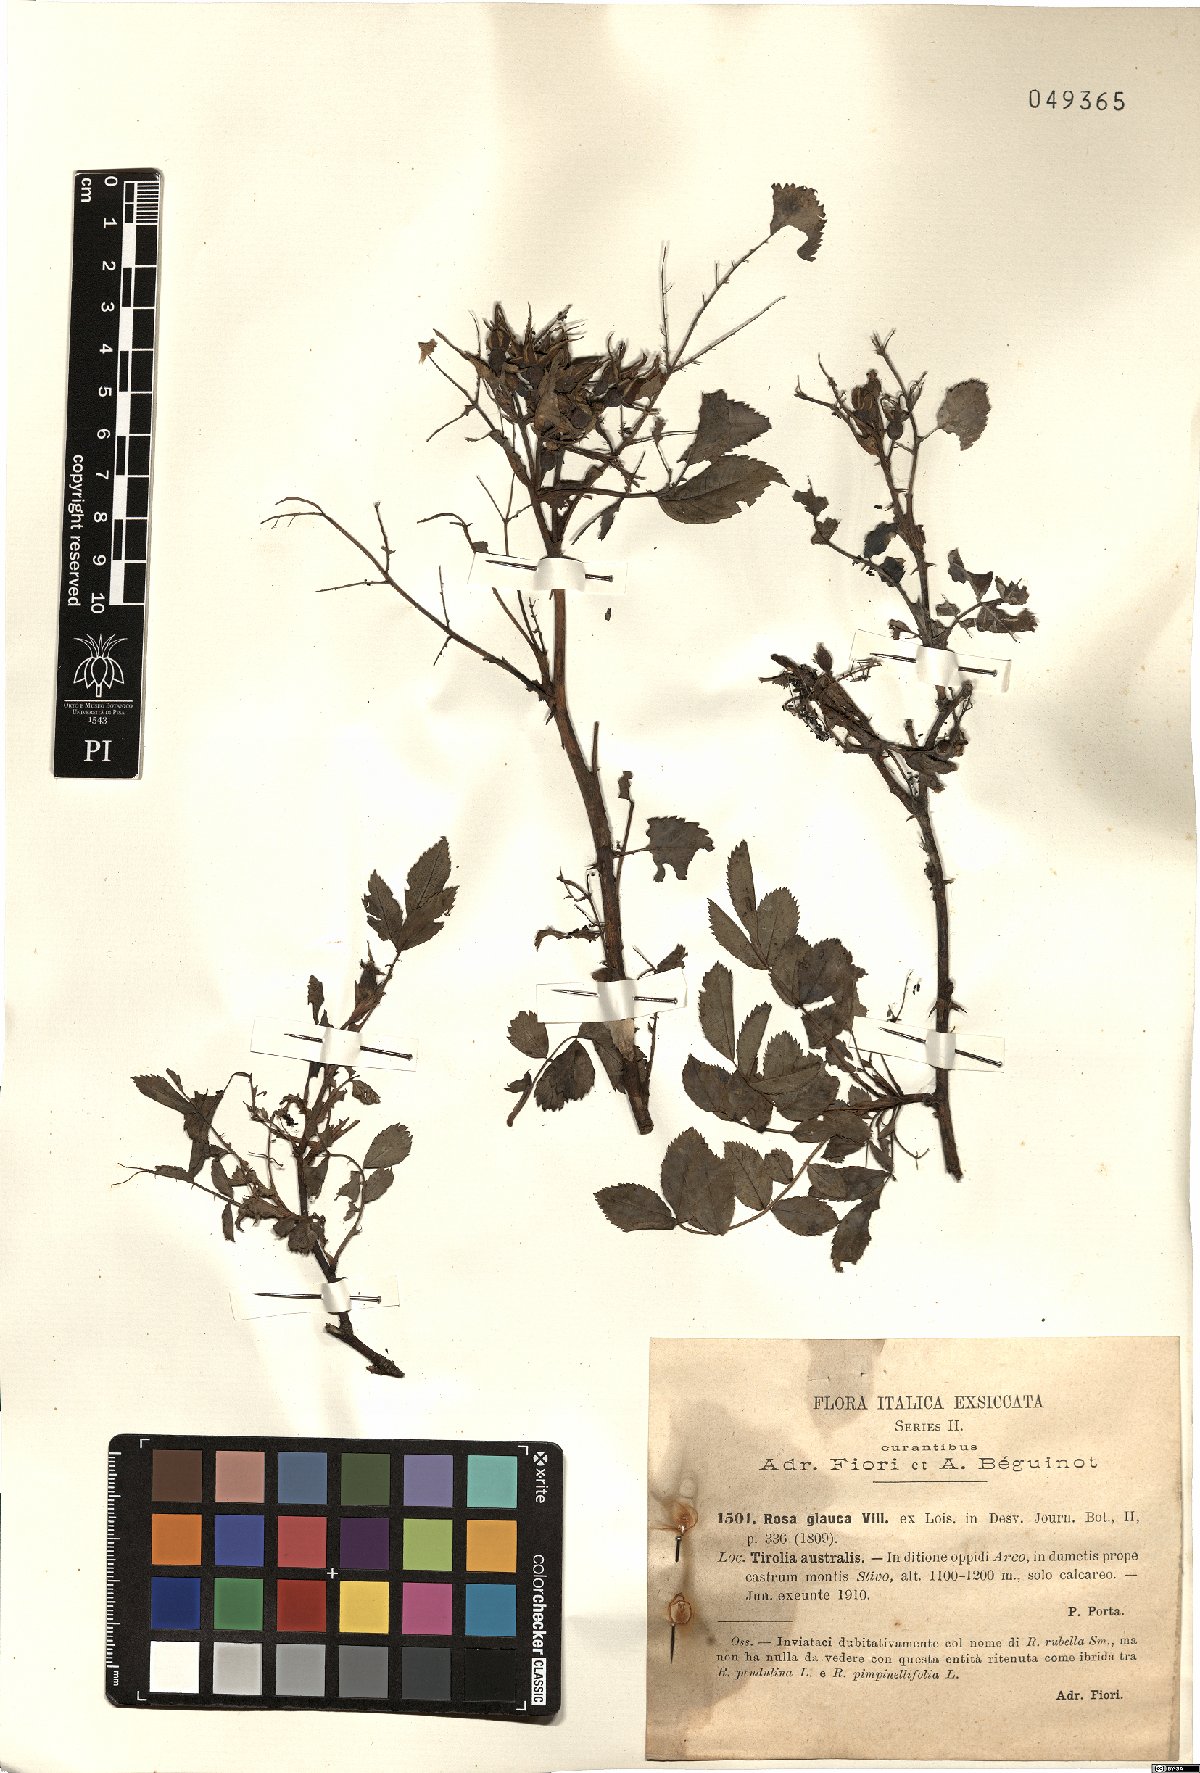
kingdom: Plantae
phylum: Tracheophyta
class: Magnoliopsida
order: Rosales
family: Rosaceae
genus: Rosa
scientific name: Rosa glauca
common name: Redleaf rose
